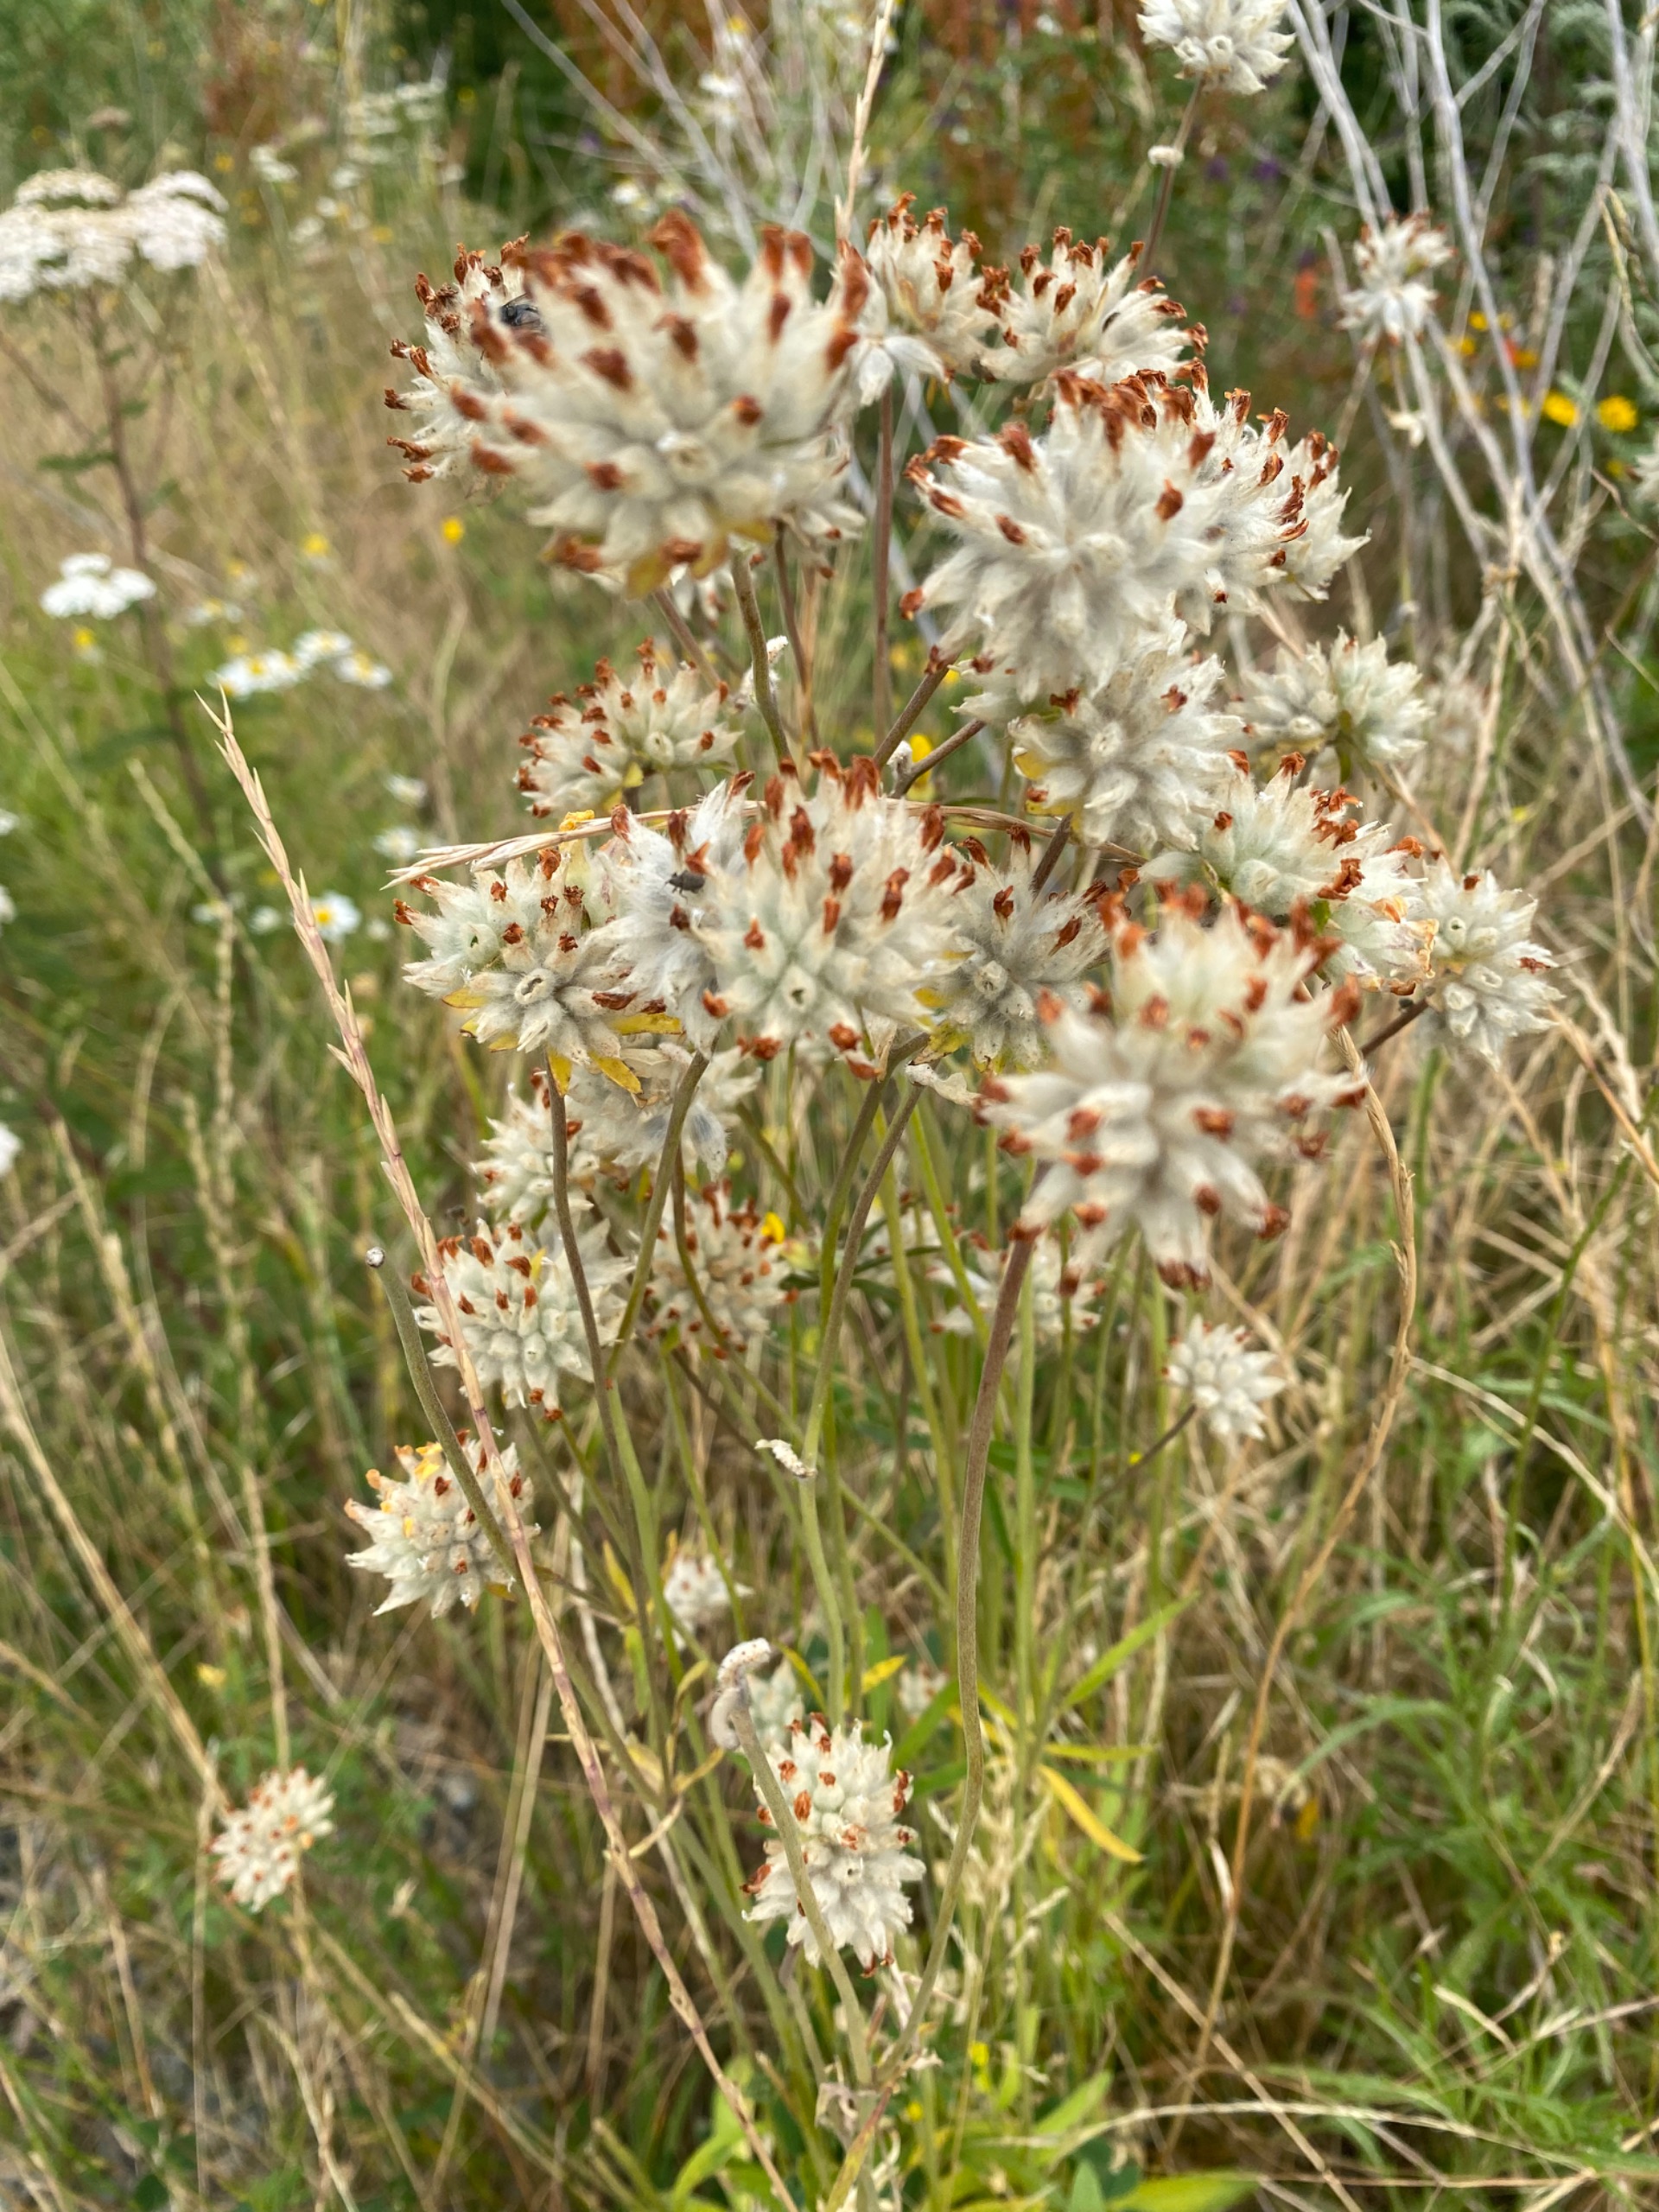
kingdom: Plantae
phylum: Tracheophyta
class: Magnoliopsida
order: Fabales
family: Fabaceae
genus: Anthyllis
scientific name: Anthyllis vulneraria
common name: Rundbælg
